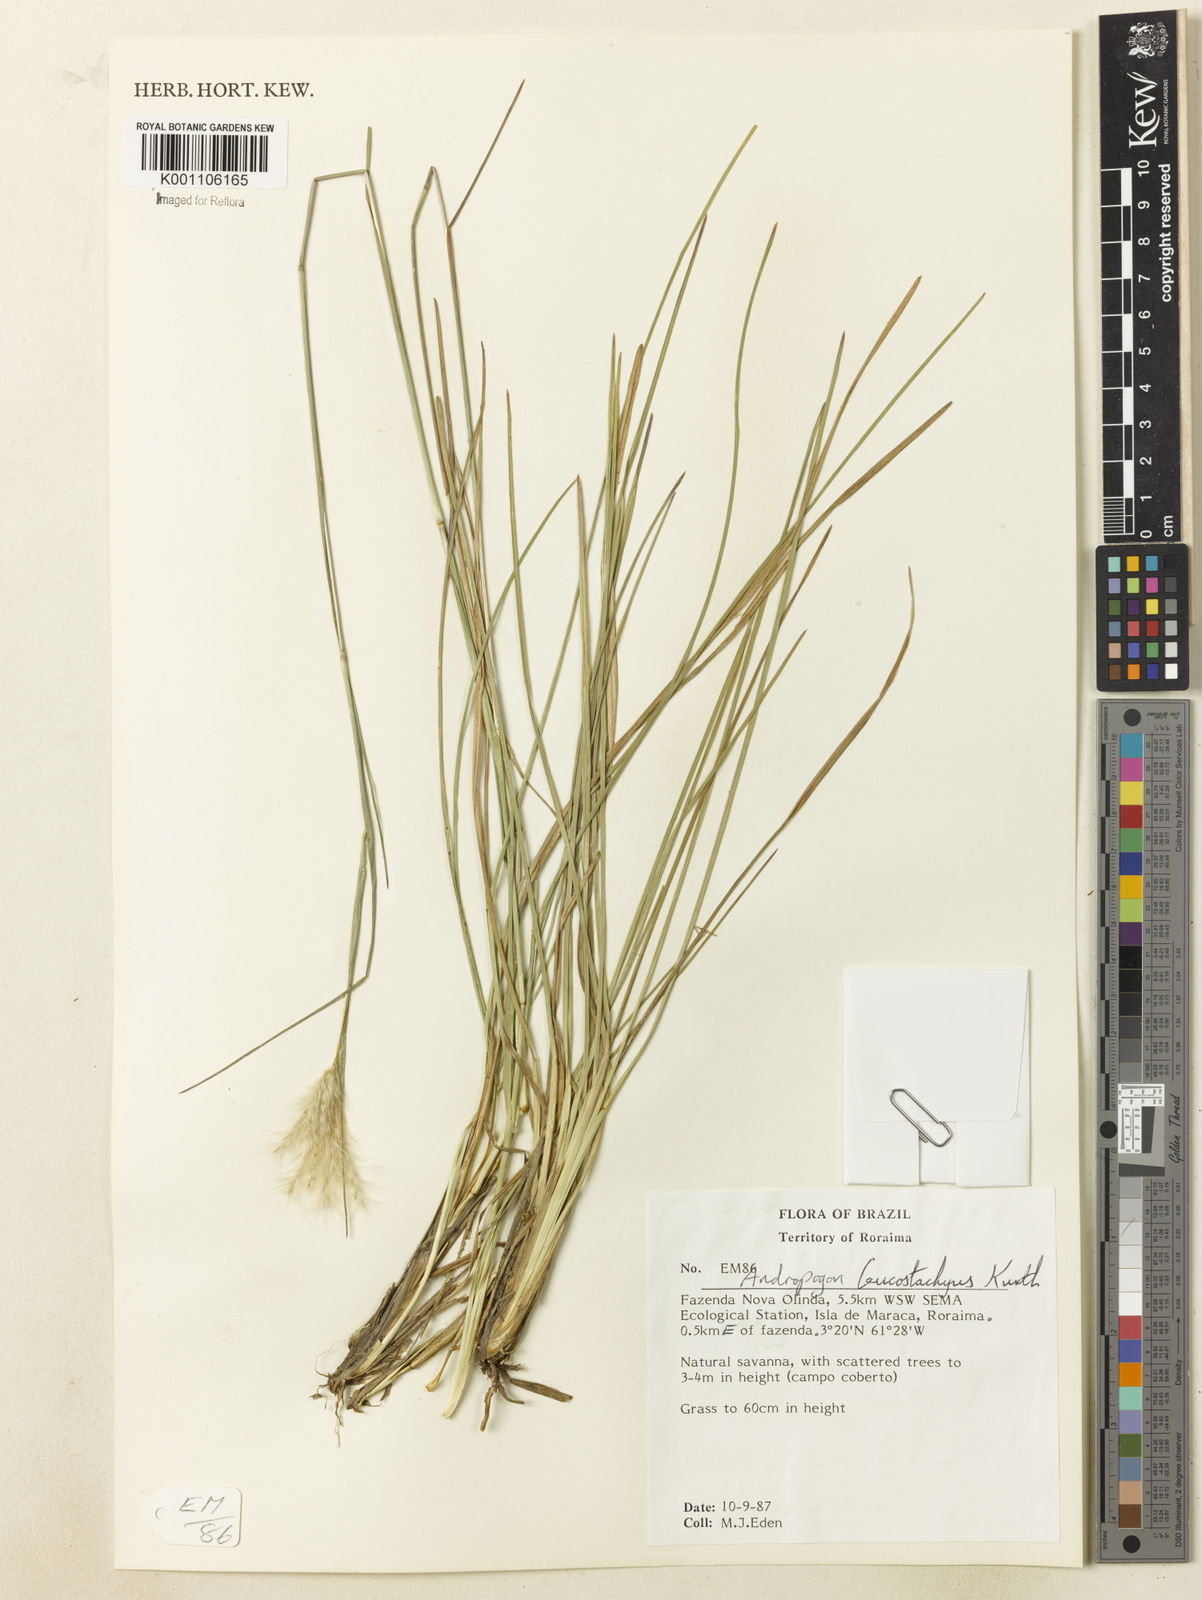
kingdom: Plantae
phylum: Tracheophyta
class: Liliopsida
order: Poales
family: Poaceae
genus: Andropogon
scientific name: Andropogon leucostachyus
